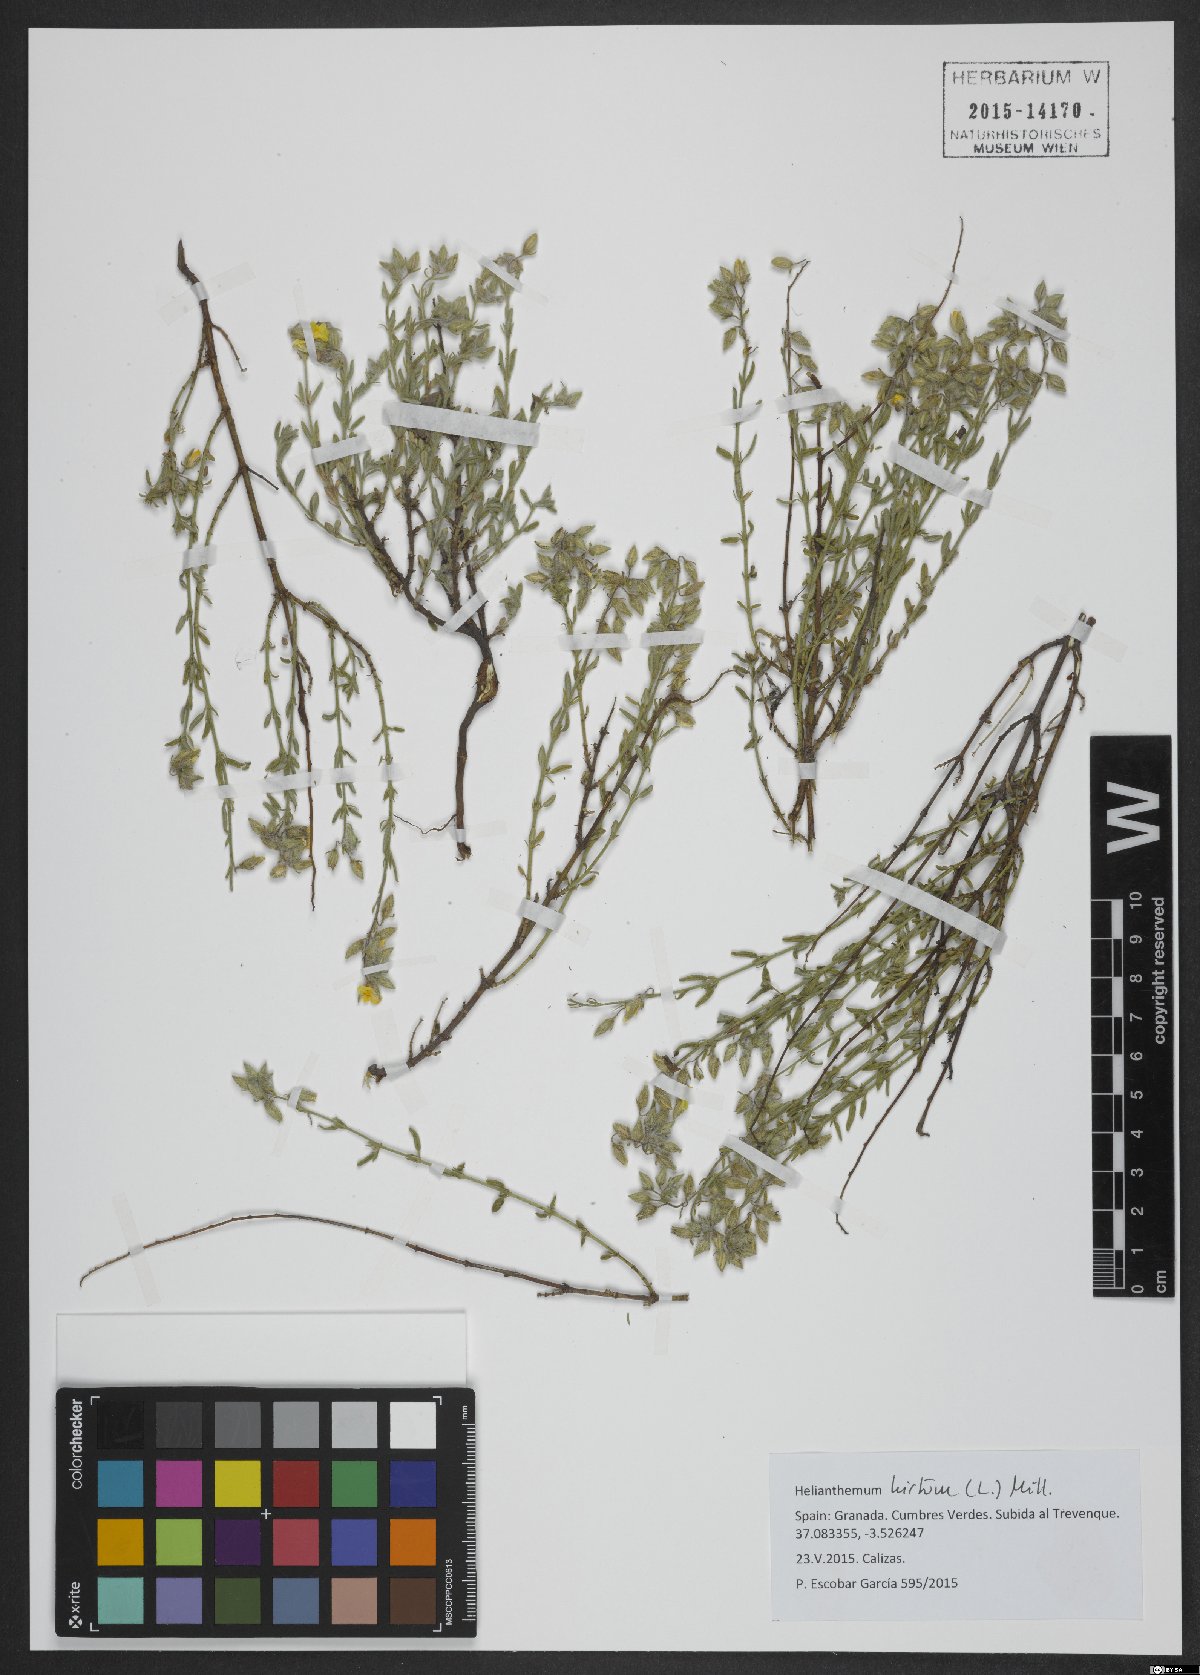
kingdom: Plantae
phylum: Tracheophyta
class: Magnoliopsida
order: Malvales
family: Cistaceae
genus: Helianthemum
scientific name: Helianthemum hirtum
